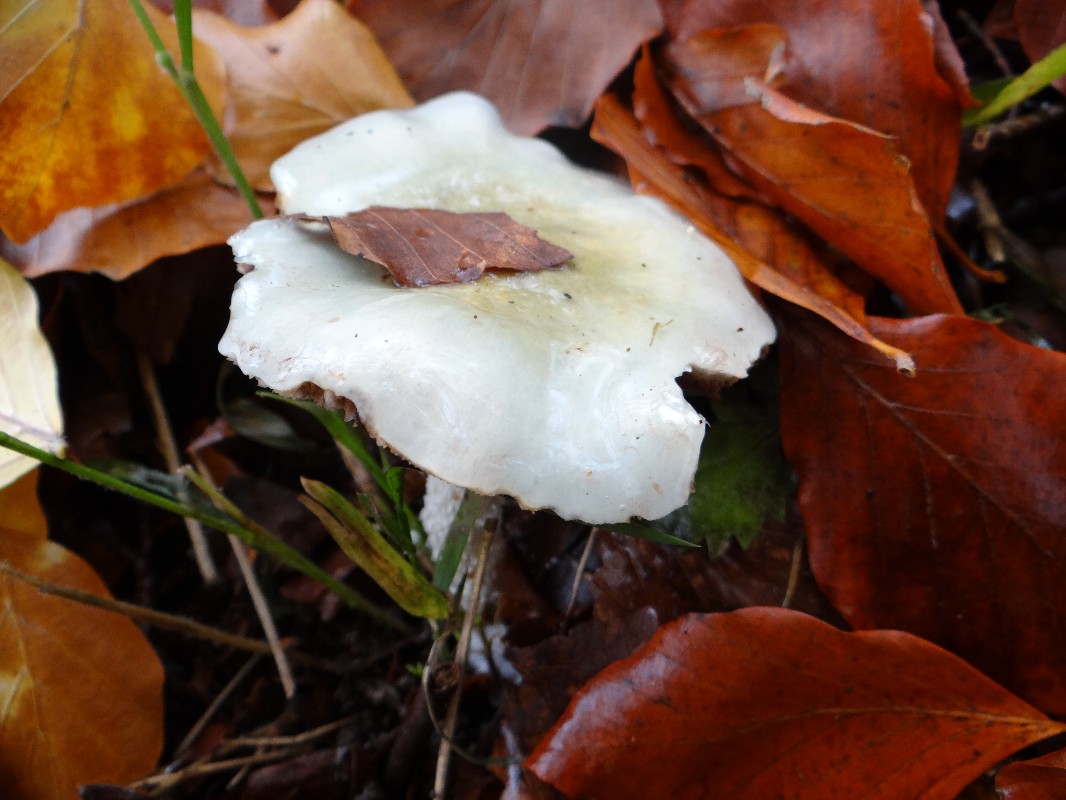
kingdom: Fungi
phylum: Basidiomycota
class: Agaricomycetes
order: Agaricales
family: Strophariaceae
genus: Stropharia
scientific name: Stropharia cyanea
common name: blågrøn bredblad
